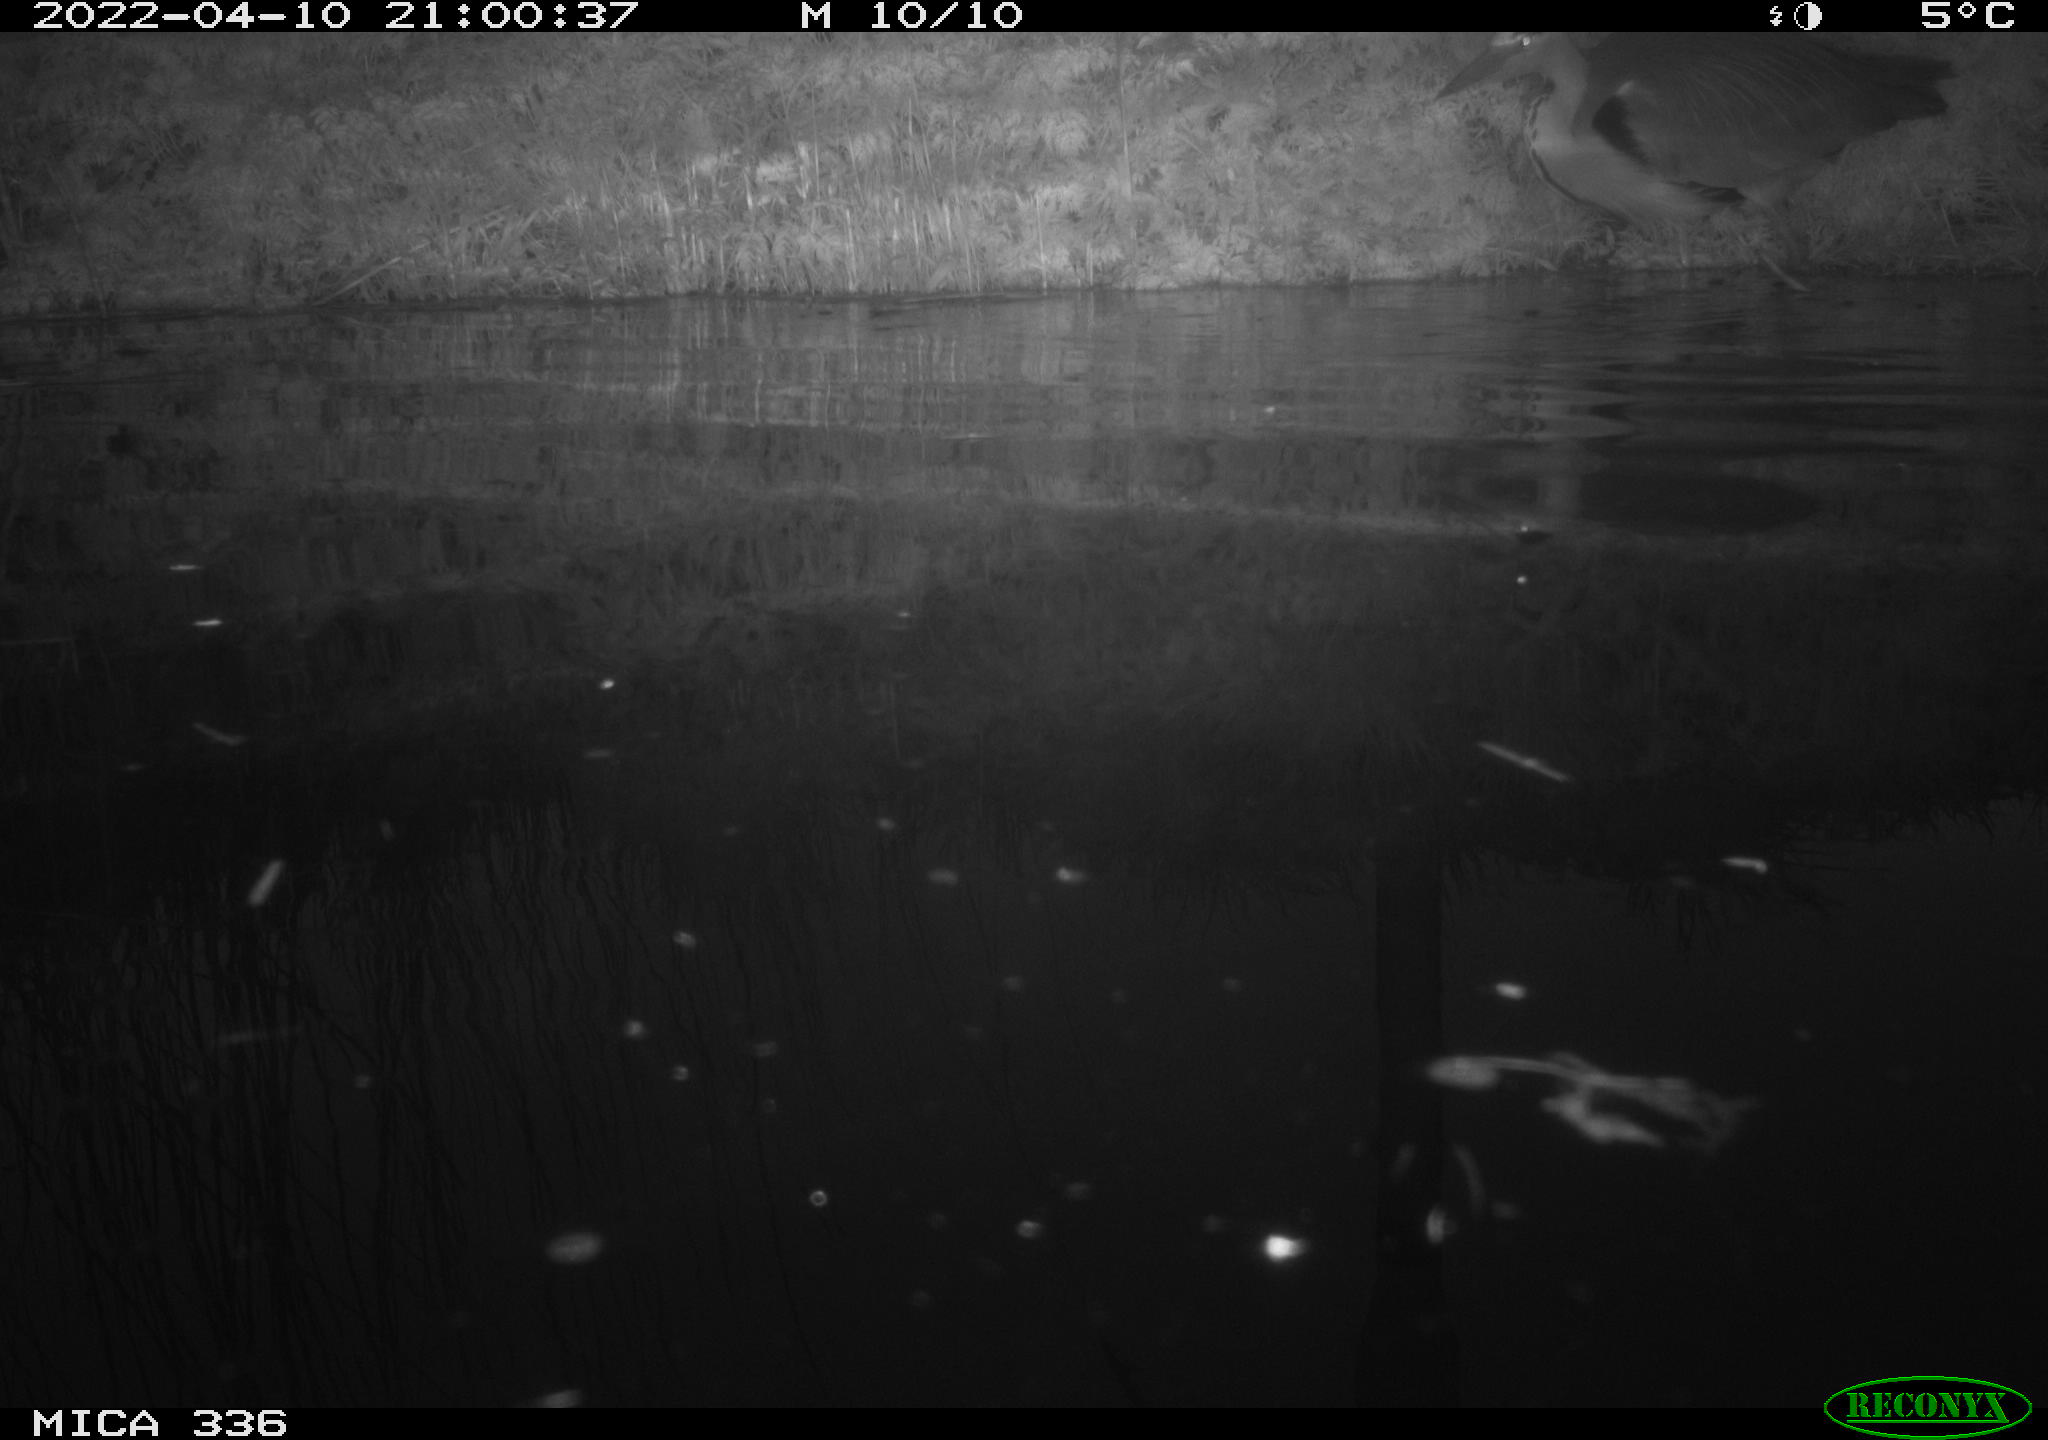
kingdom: Animalia
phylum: Chordata
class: Aves
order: Pelecaniformes
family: Ardeidae
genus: Ardea
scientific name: Ardea cinerea
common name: Grey heron
